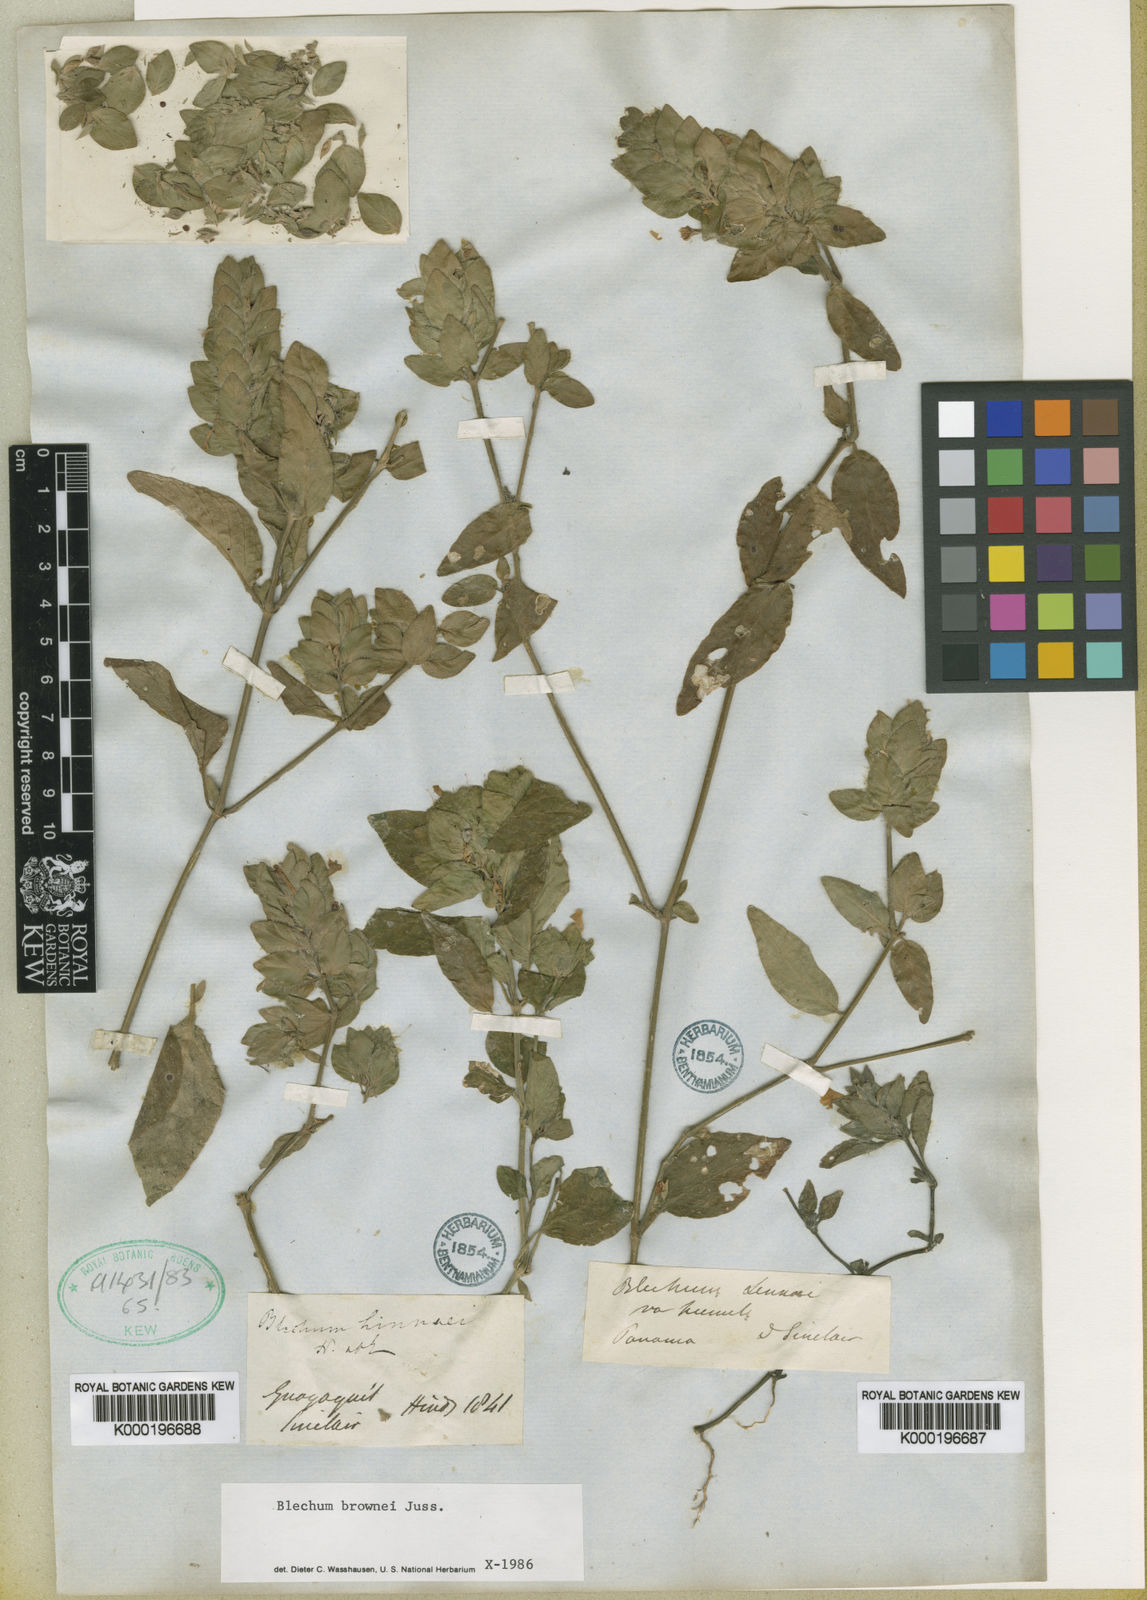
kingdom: Plantae
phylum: Tracheophyta
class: Magnoliopsida
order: Lamiales
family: Acanthaceae
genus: Ruellia
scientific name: Ruellia blechum
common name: Browne's blechum
